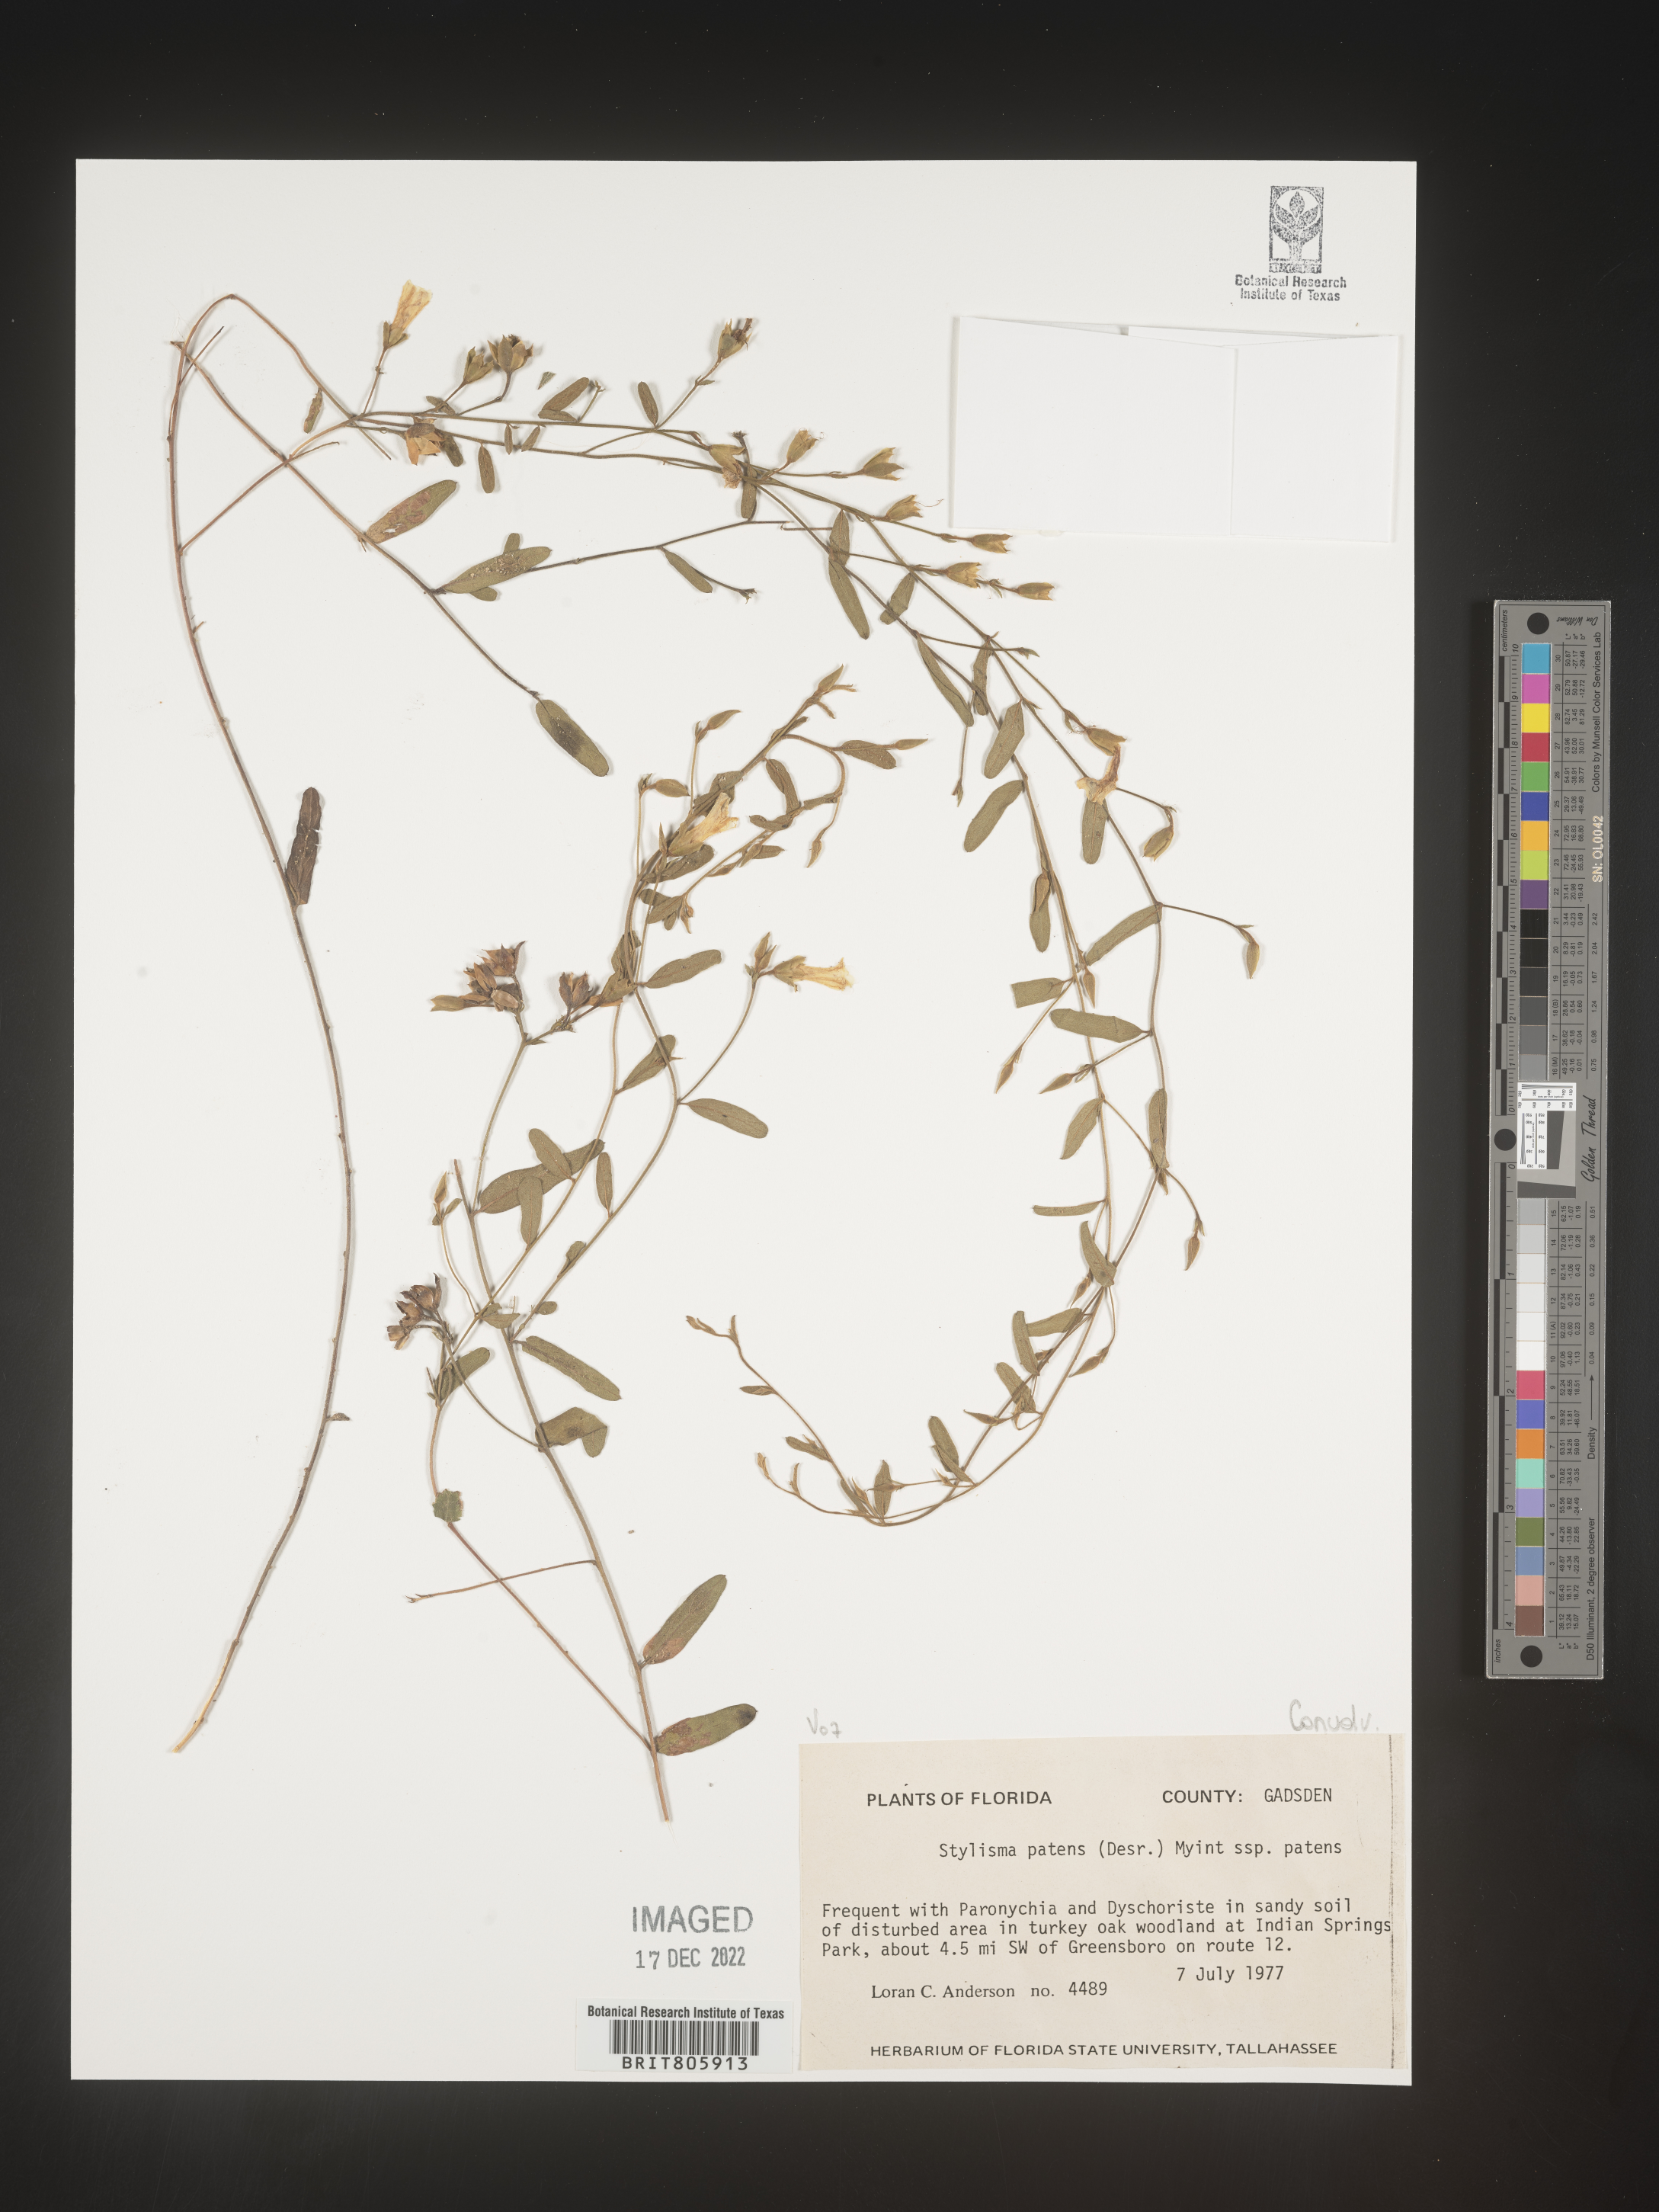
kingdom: Plantae
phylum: Tracheophyta
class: Magnoliopsida
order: Solanales
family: Convolvulaceae
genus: Stylisma
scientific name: Stylisma
